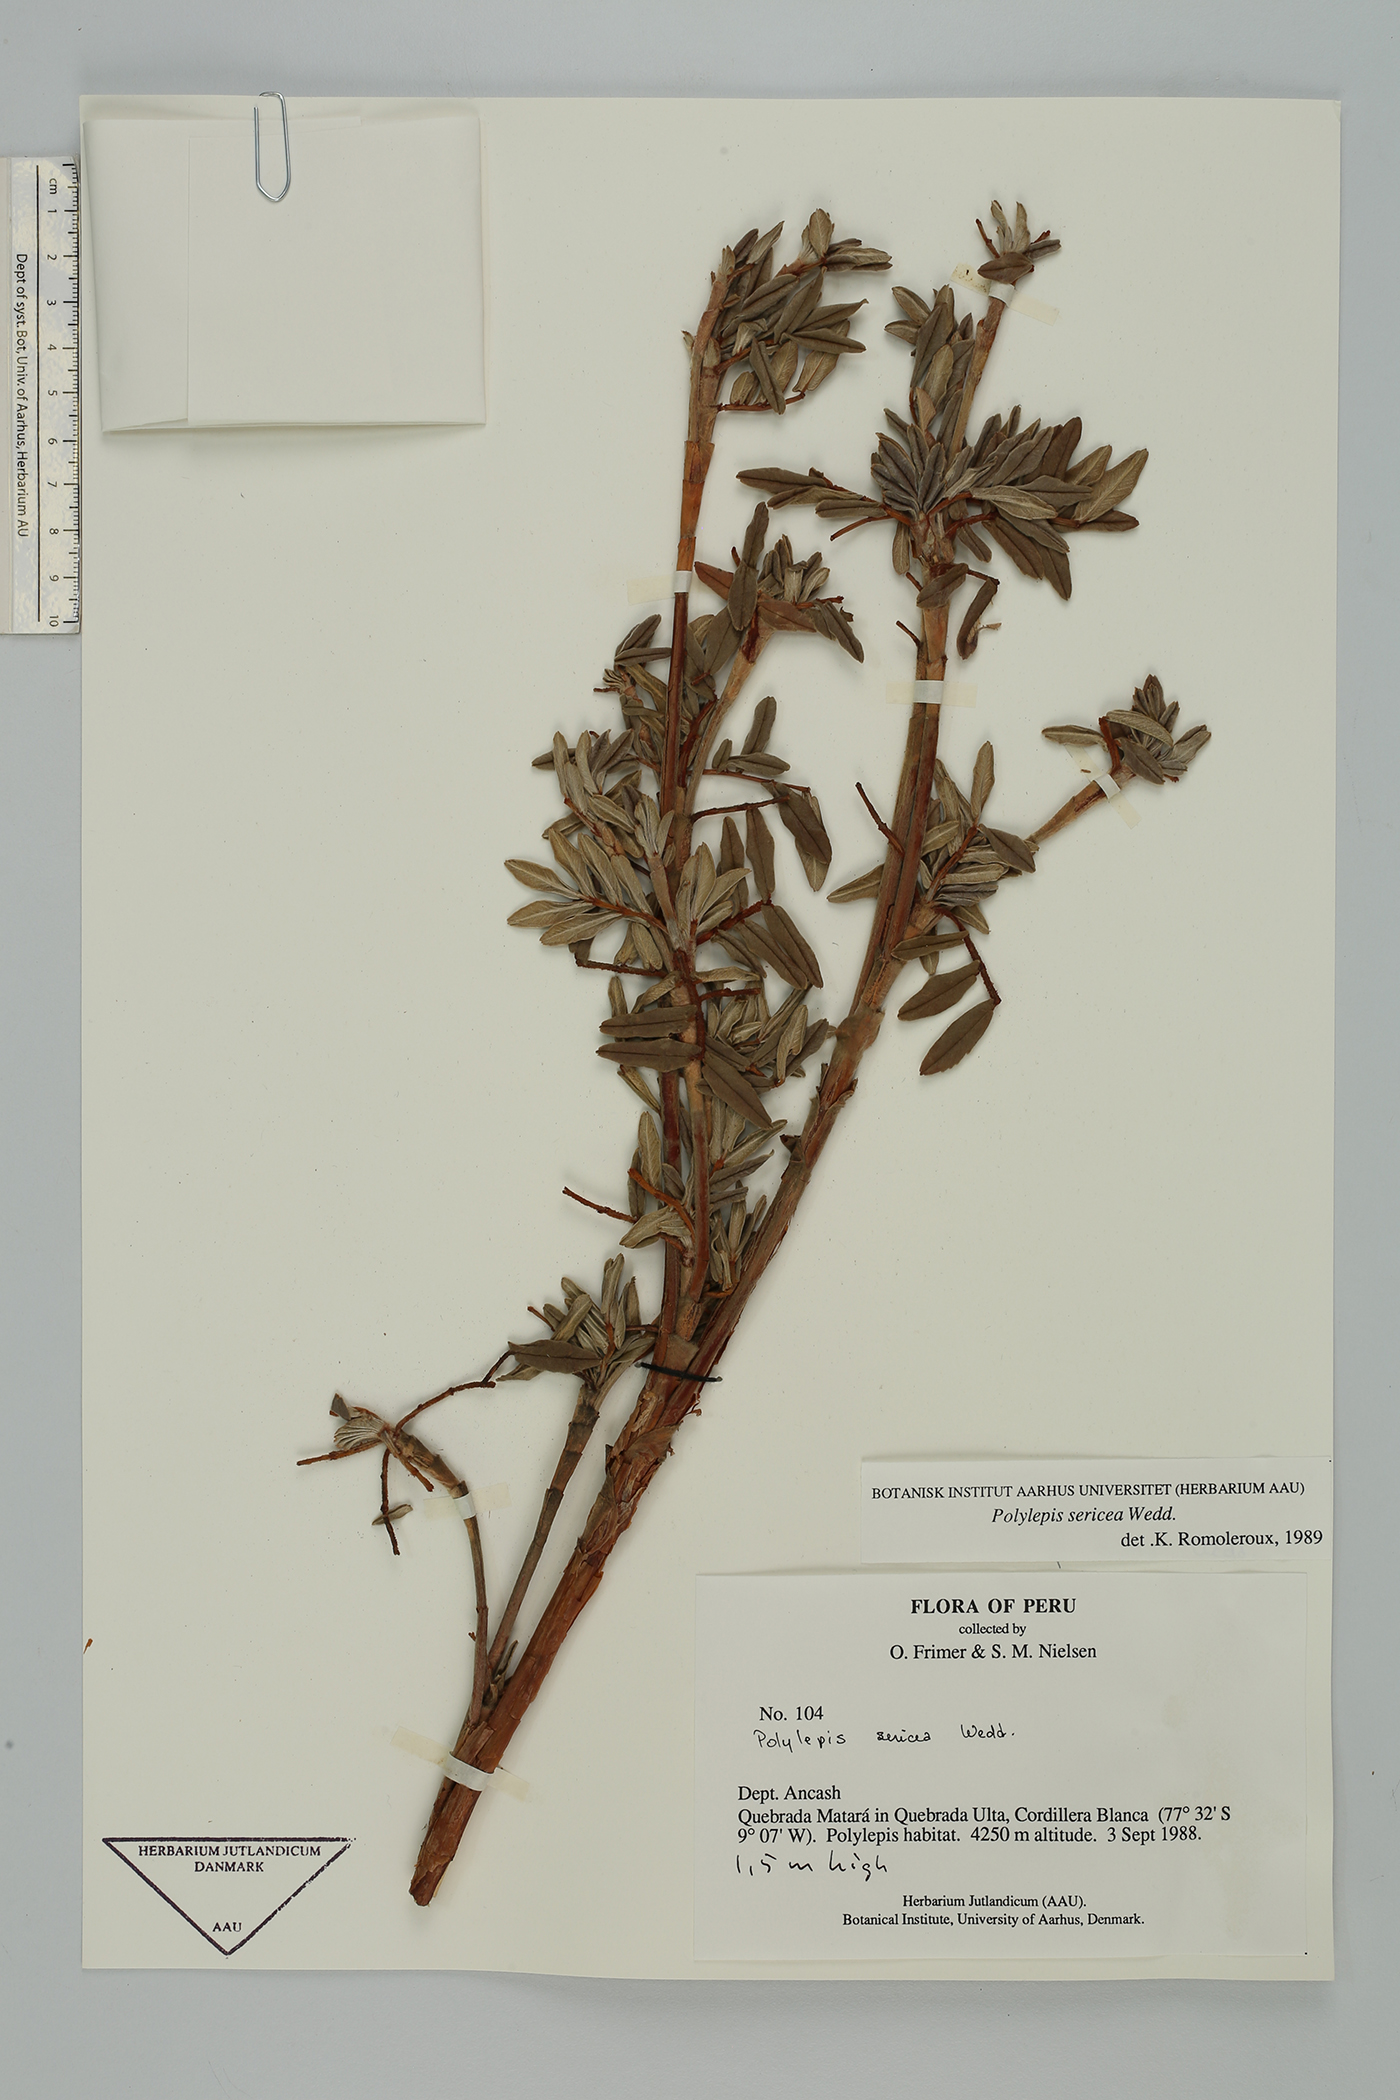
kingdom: Plantae
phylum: Tracheophyta
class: Magnoliopsida
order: Rosales
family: Rosaceae
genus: Polylepis
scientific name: Polylepis sericea
